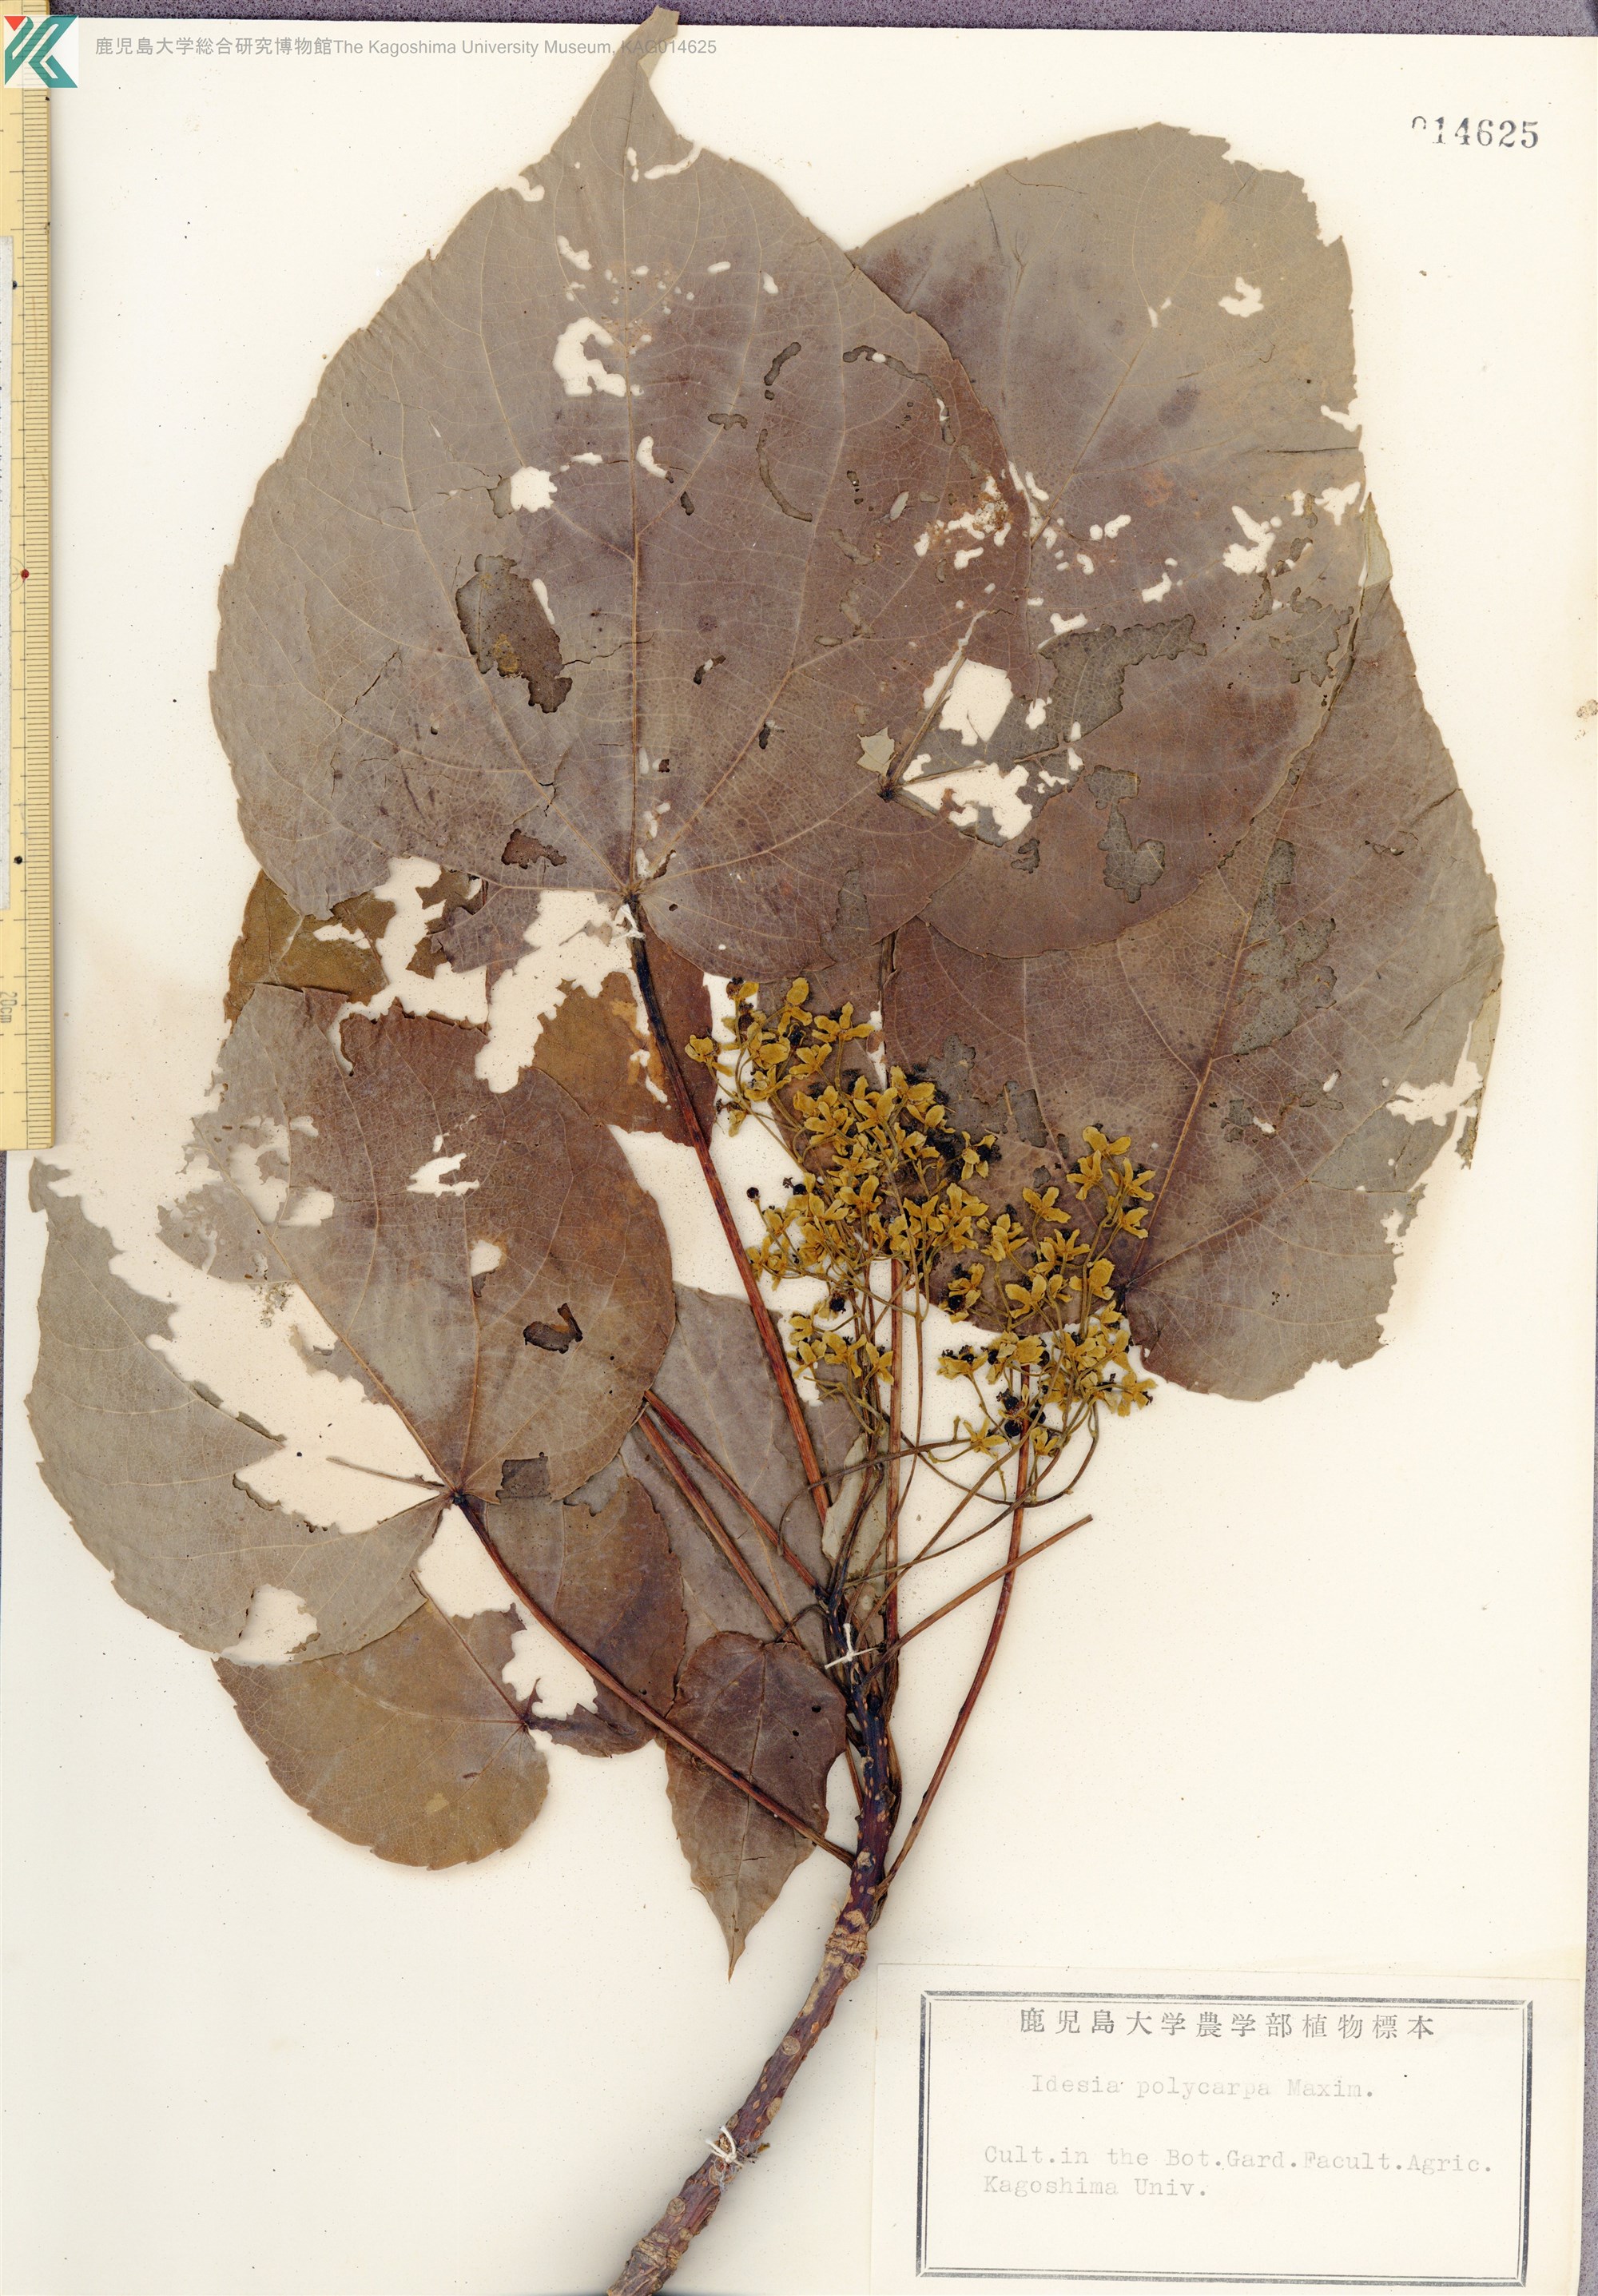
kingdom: Plantae
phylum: Tracheophyta
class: Magnoliopsida
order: Malpighiales
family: Salicaceae
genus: Idesia
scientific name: Idesia polycarpa
